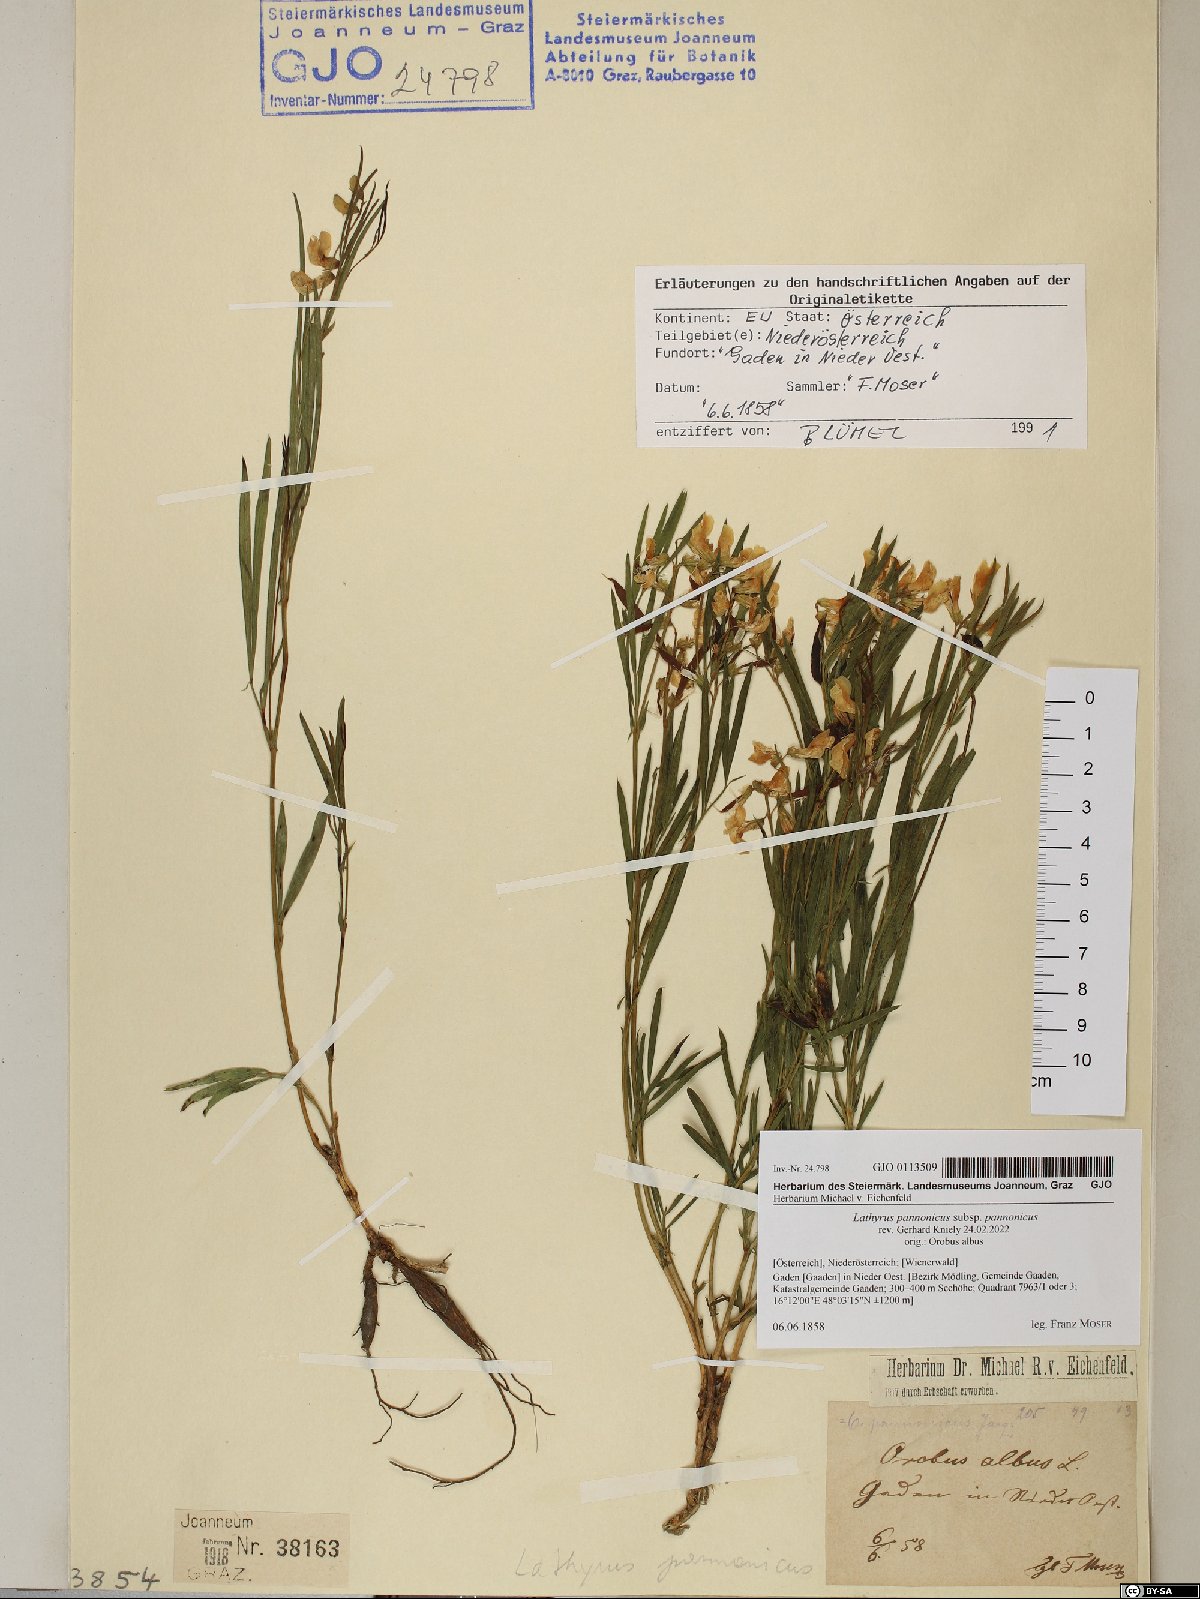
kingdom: Plantae
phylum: Tracheophyta
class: Magnoliopsida
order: Fabales
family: Fabaceae
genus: Lathyrus
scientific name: Lathyrus pannonicus
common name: Pea
